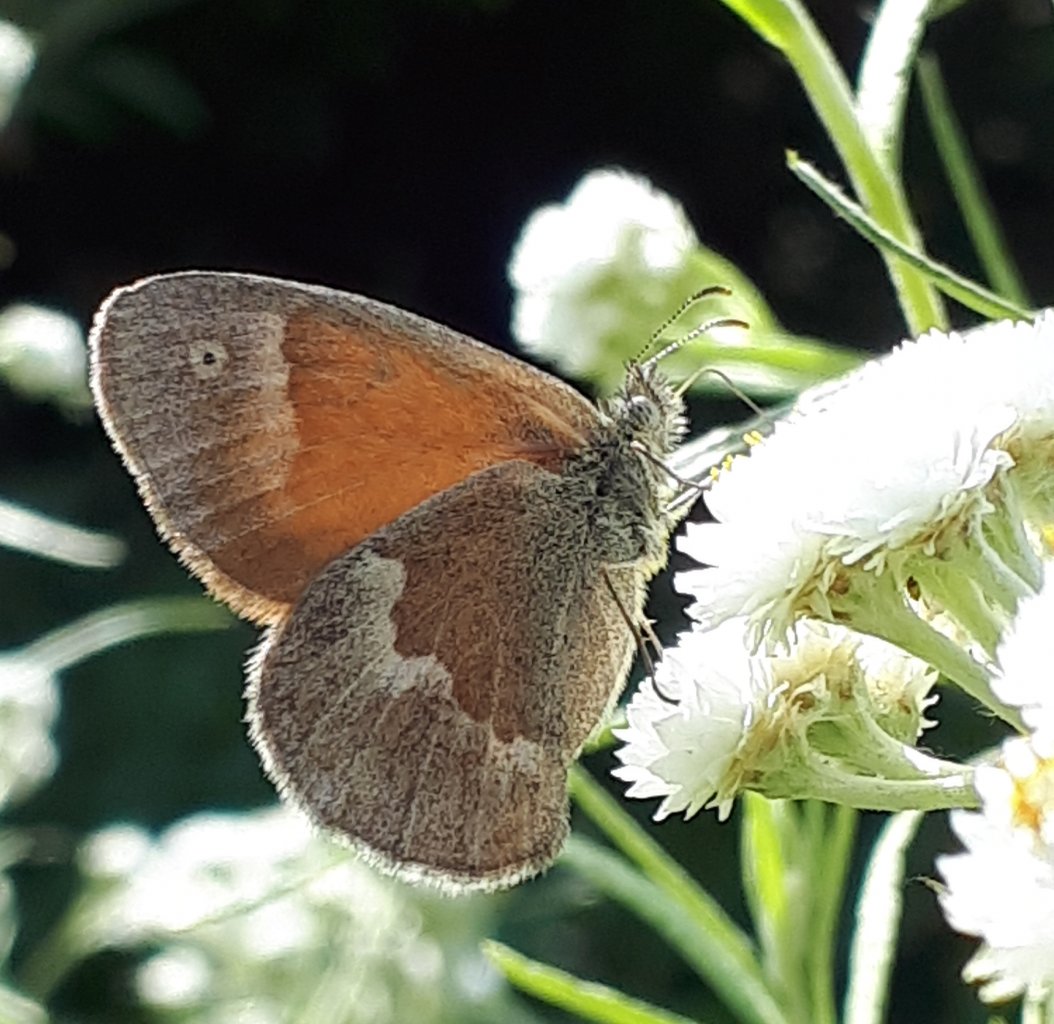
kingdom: Animalia
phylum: Arthropoda
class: Insecta
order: Lepidoptera
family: Nymphalidae
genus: Coenonympha
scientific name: Coenonympha tullia
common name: Large Heath
